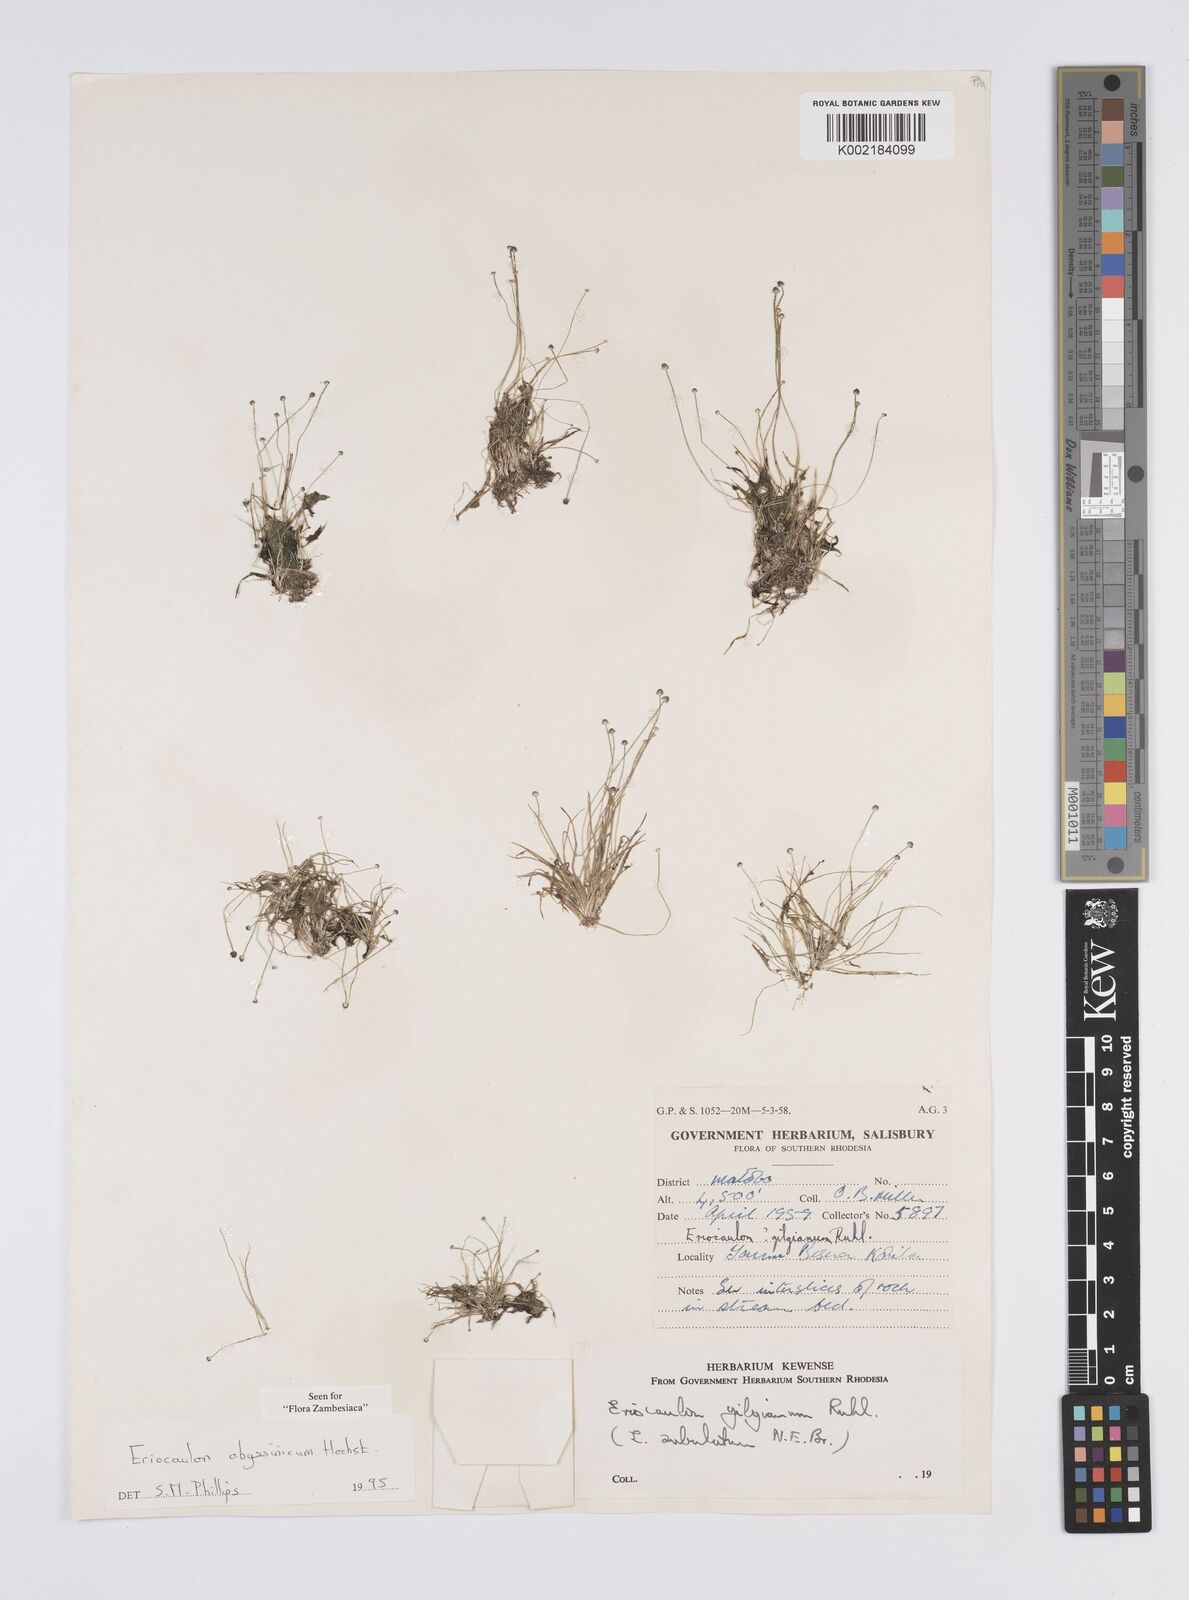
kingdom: Plantae
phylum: Tracheophyta
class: Liliopsida
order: Poales
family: Eriocaulaceae
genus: Eriocaulon
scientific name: Eriocaulon abyssinicum
